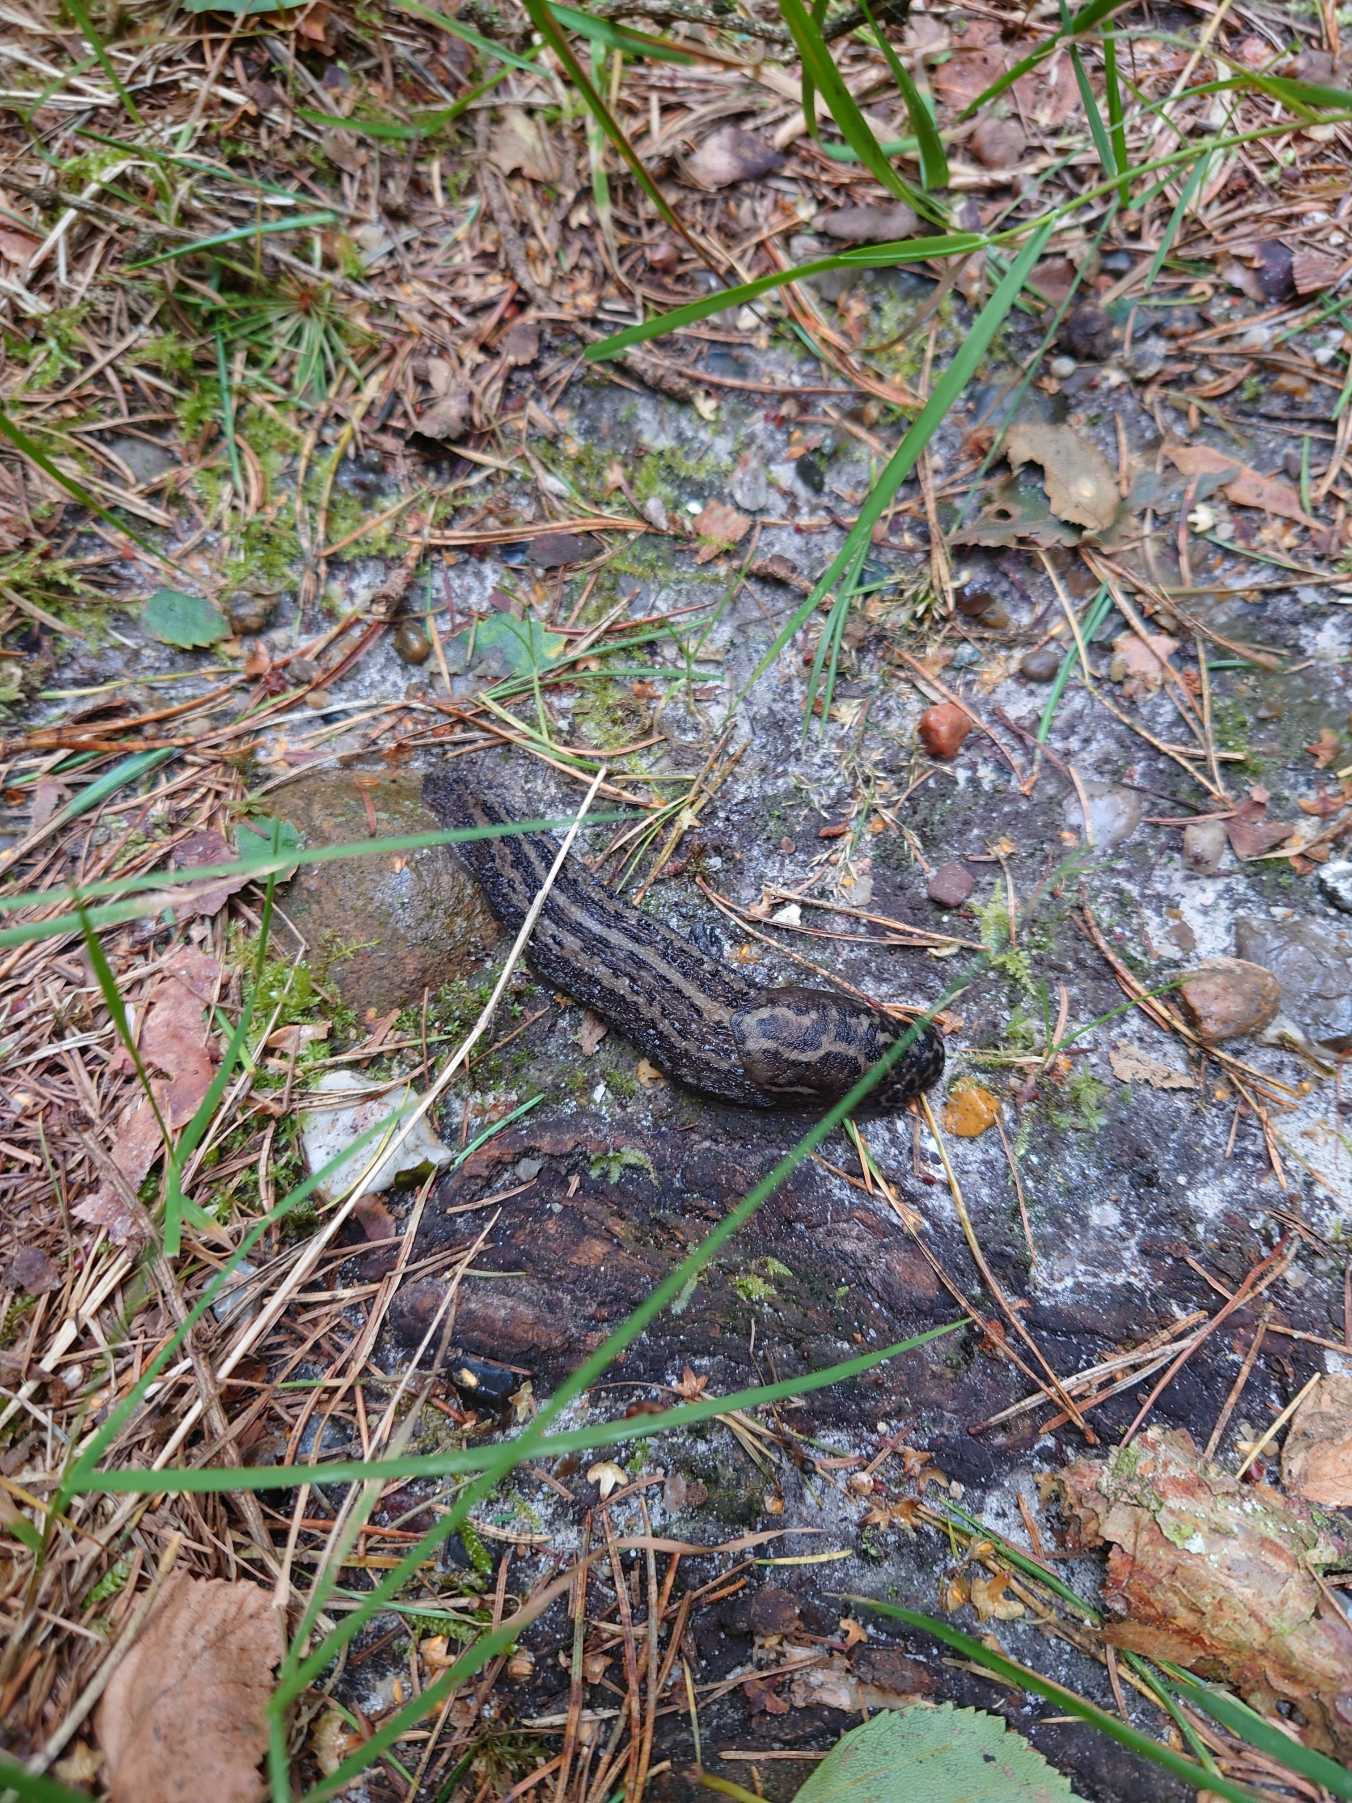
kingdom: Animalia
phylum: Mollusca
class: Gastropoda
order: Stylommatophora
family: Limacidae
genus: Limax
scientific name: Limax maximus
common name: Pantersnegl
